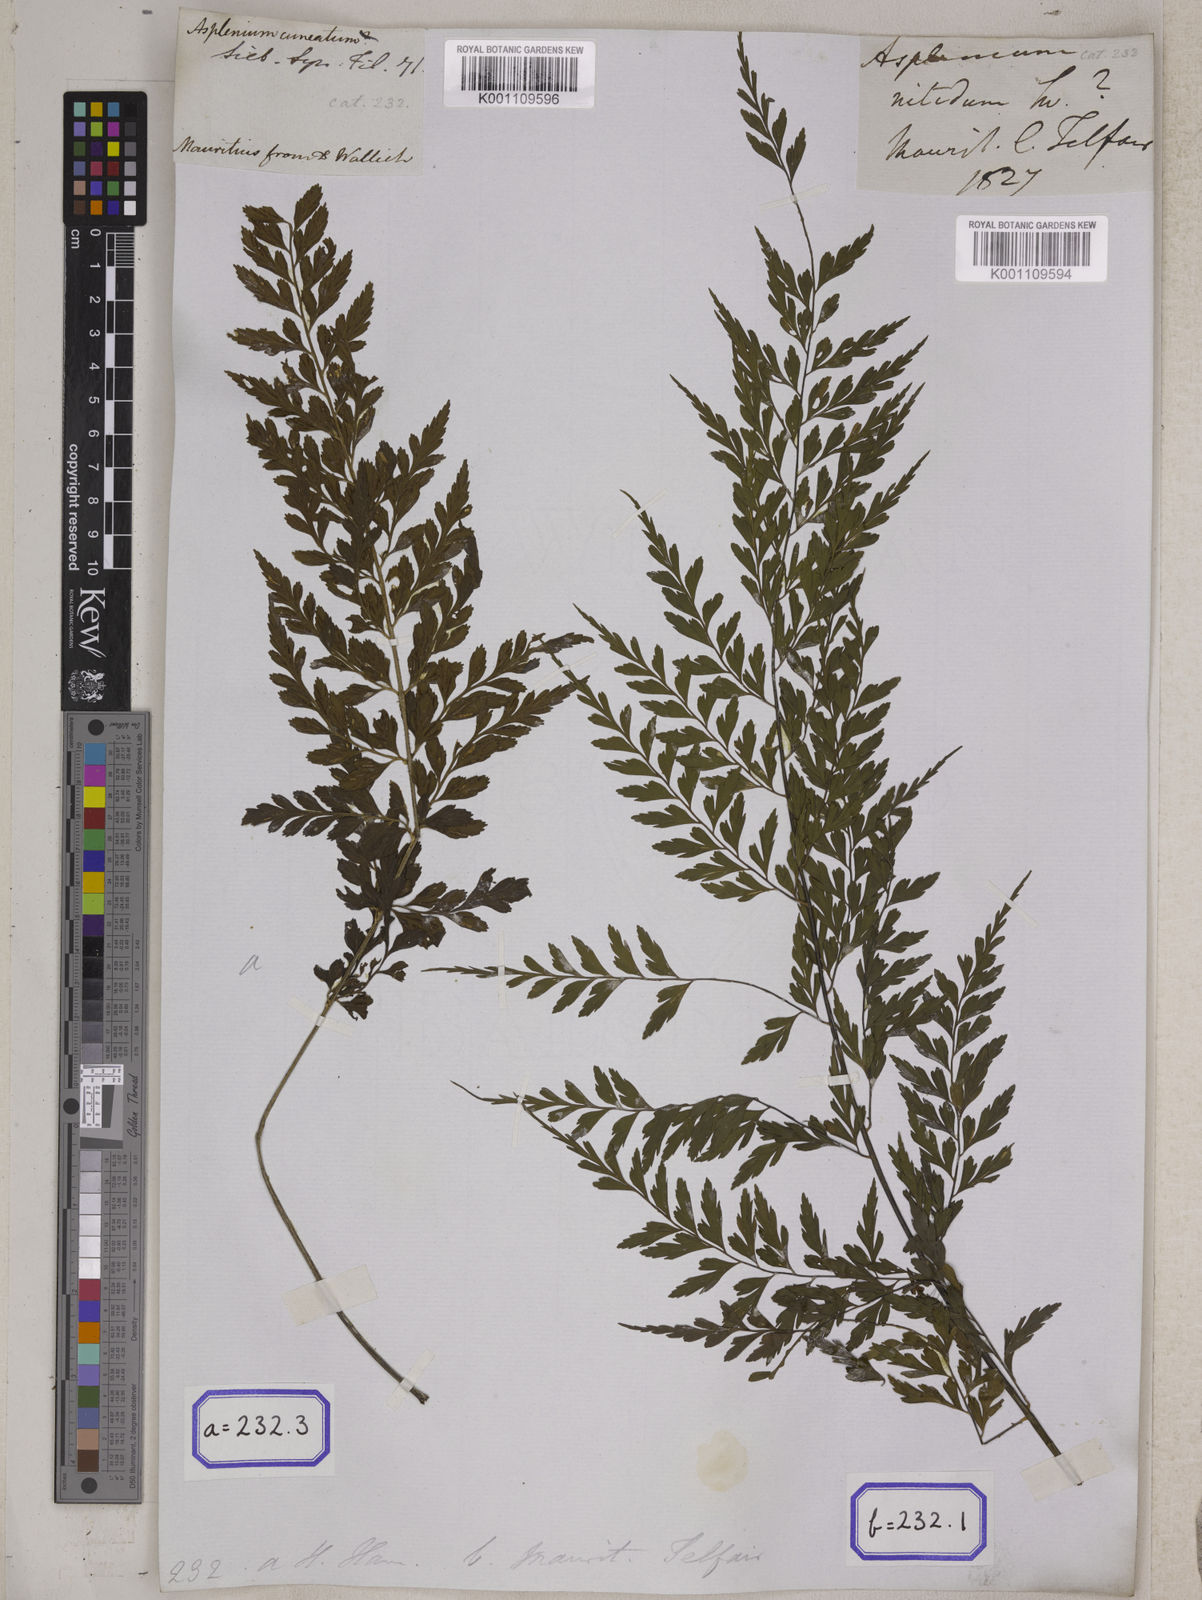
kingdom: Plantae
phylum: Tracheophyta
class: Polypodiopsida
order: Polypodiales
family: Aspleniaceae
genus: Asplenium
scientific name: Asplenium nitidum
